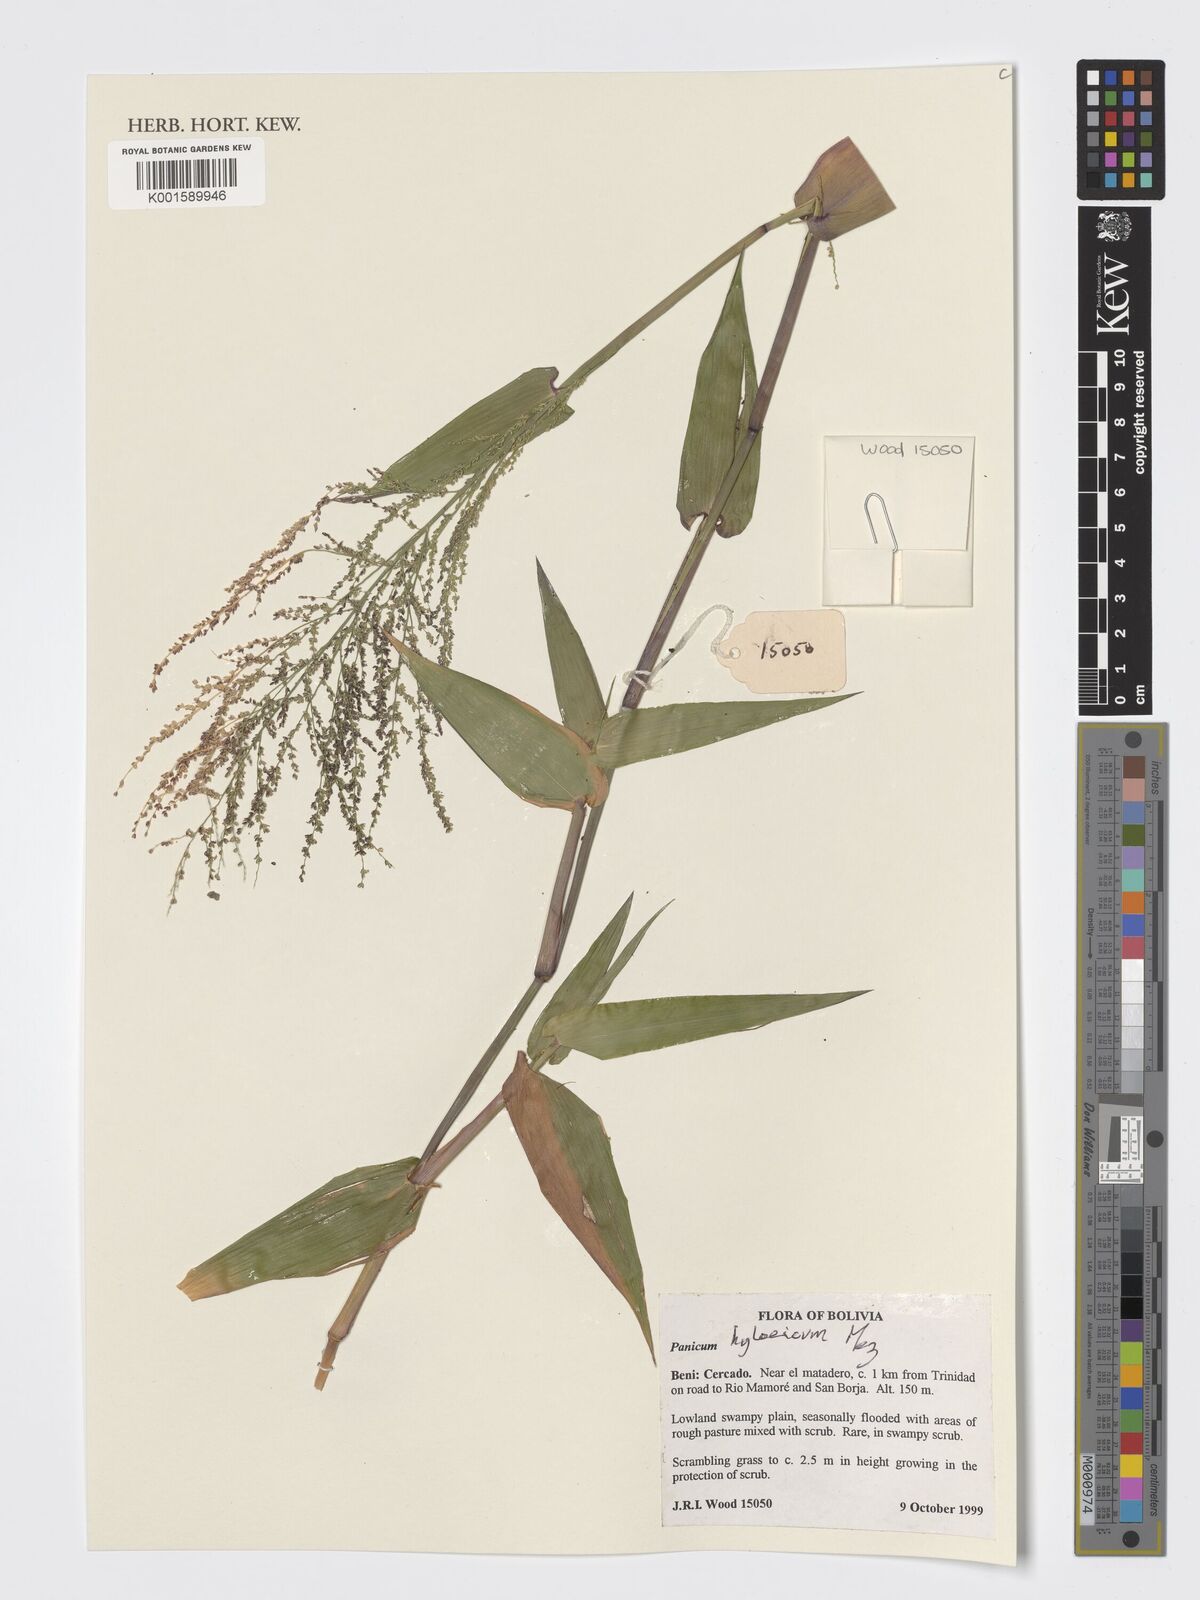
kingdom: Plantae
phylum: Tracheophyta
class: Liliopsida
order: Poales
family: Poaceae
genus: Rugoloa
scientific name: Rugoloa hylaeica
